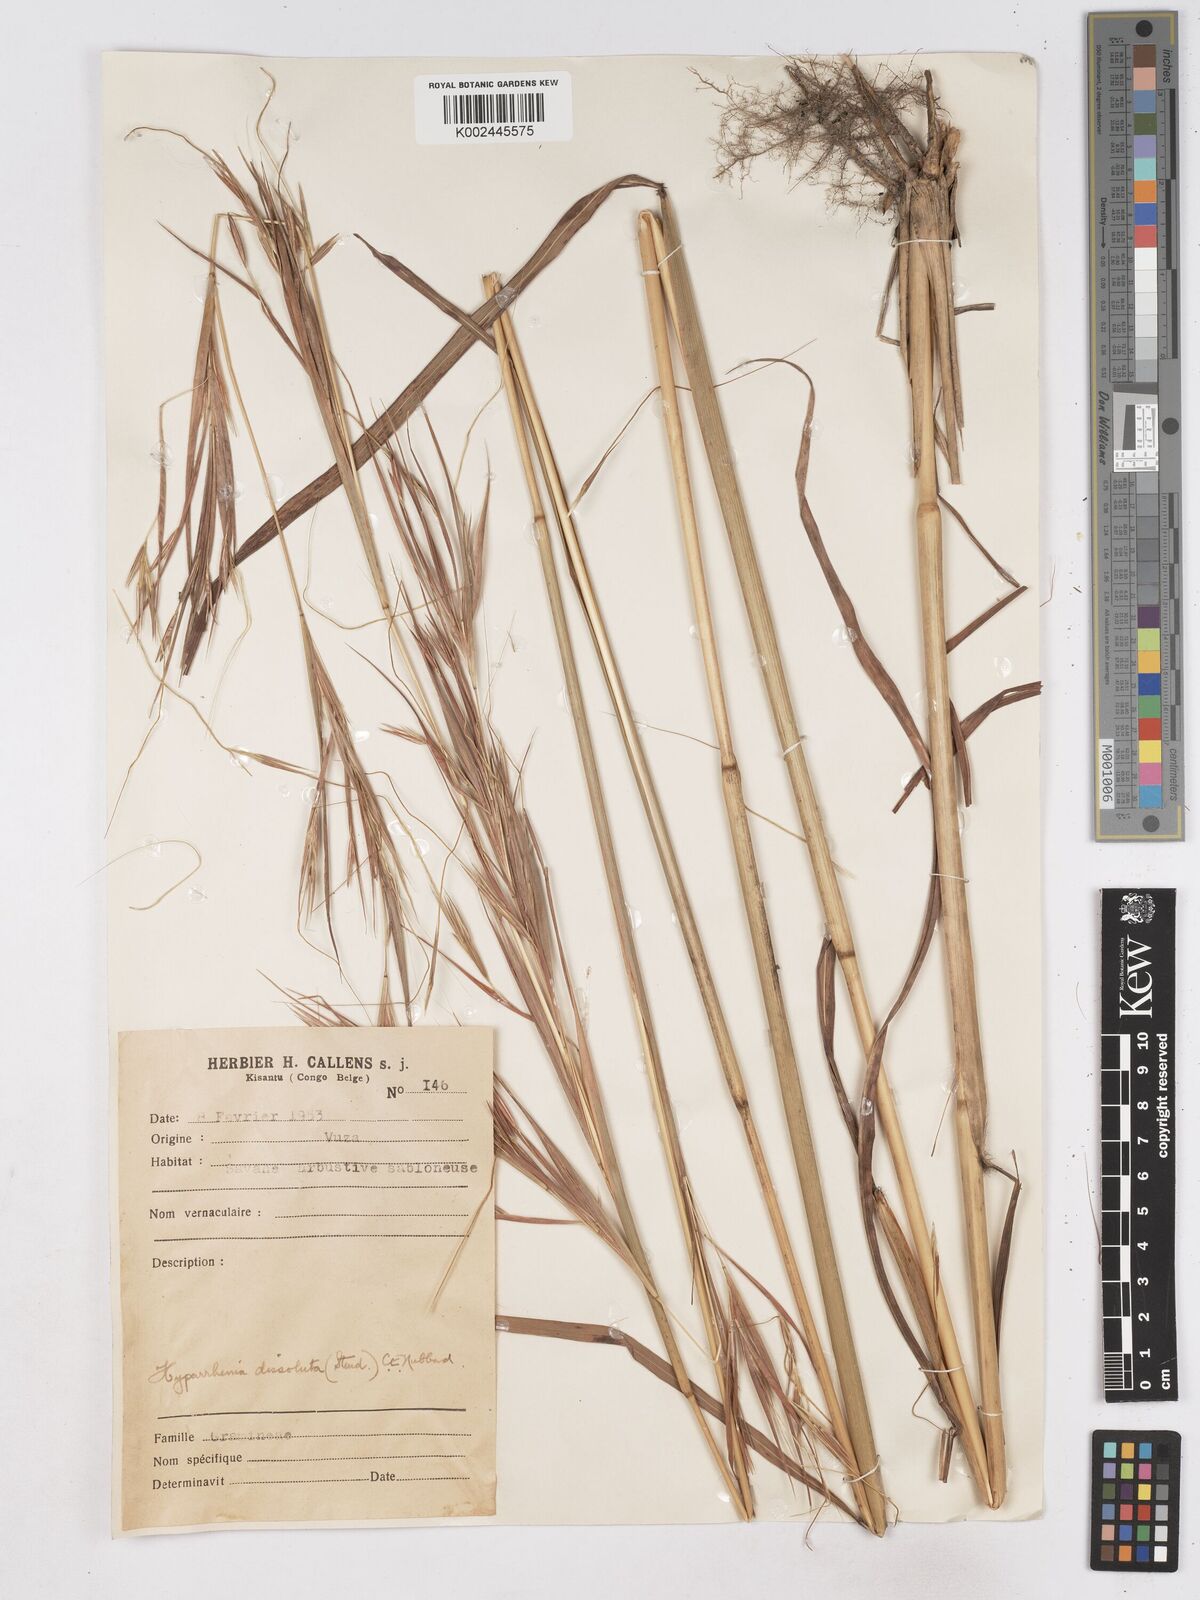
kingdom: Plantae
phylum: Tracheophyta
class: Liliopsida
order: Poales
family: Poaceae
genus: Hyperthelia
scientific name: Hyperthelia dissoluta
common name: Yellow thatching grass
